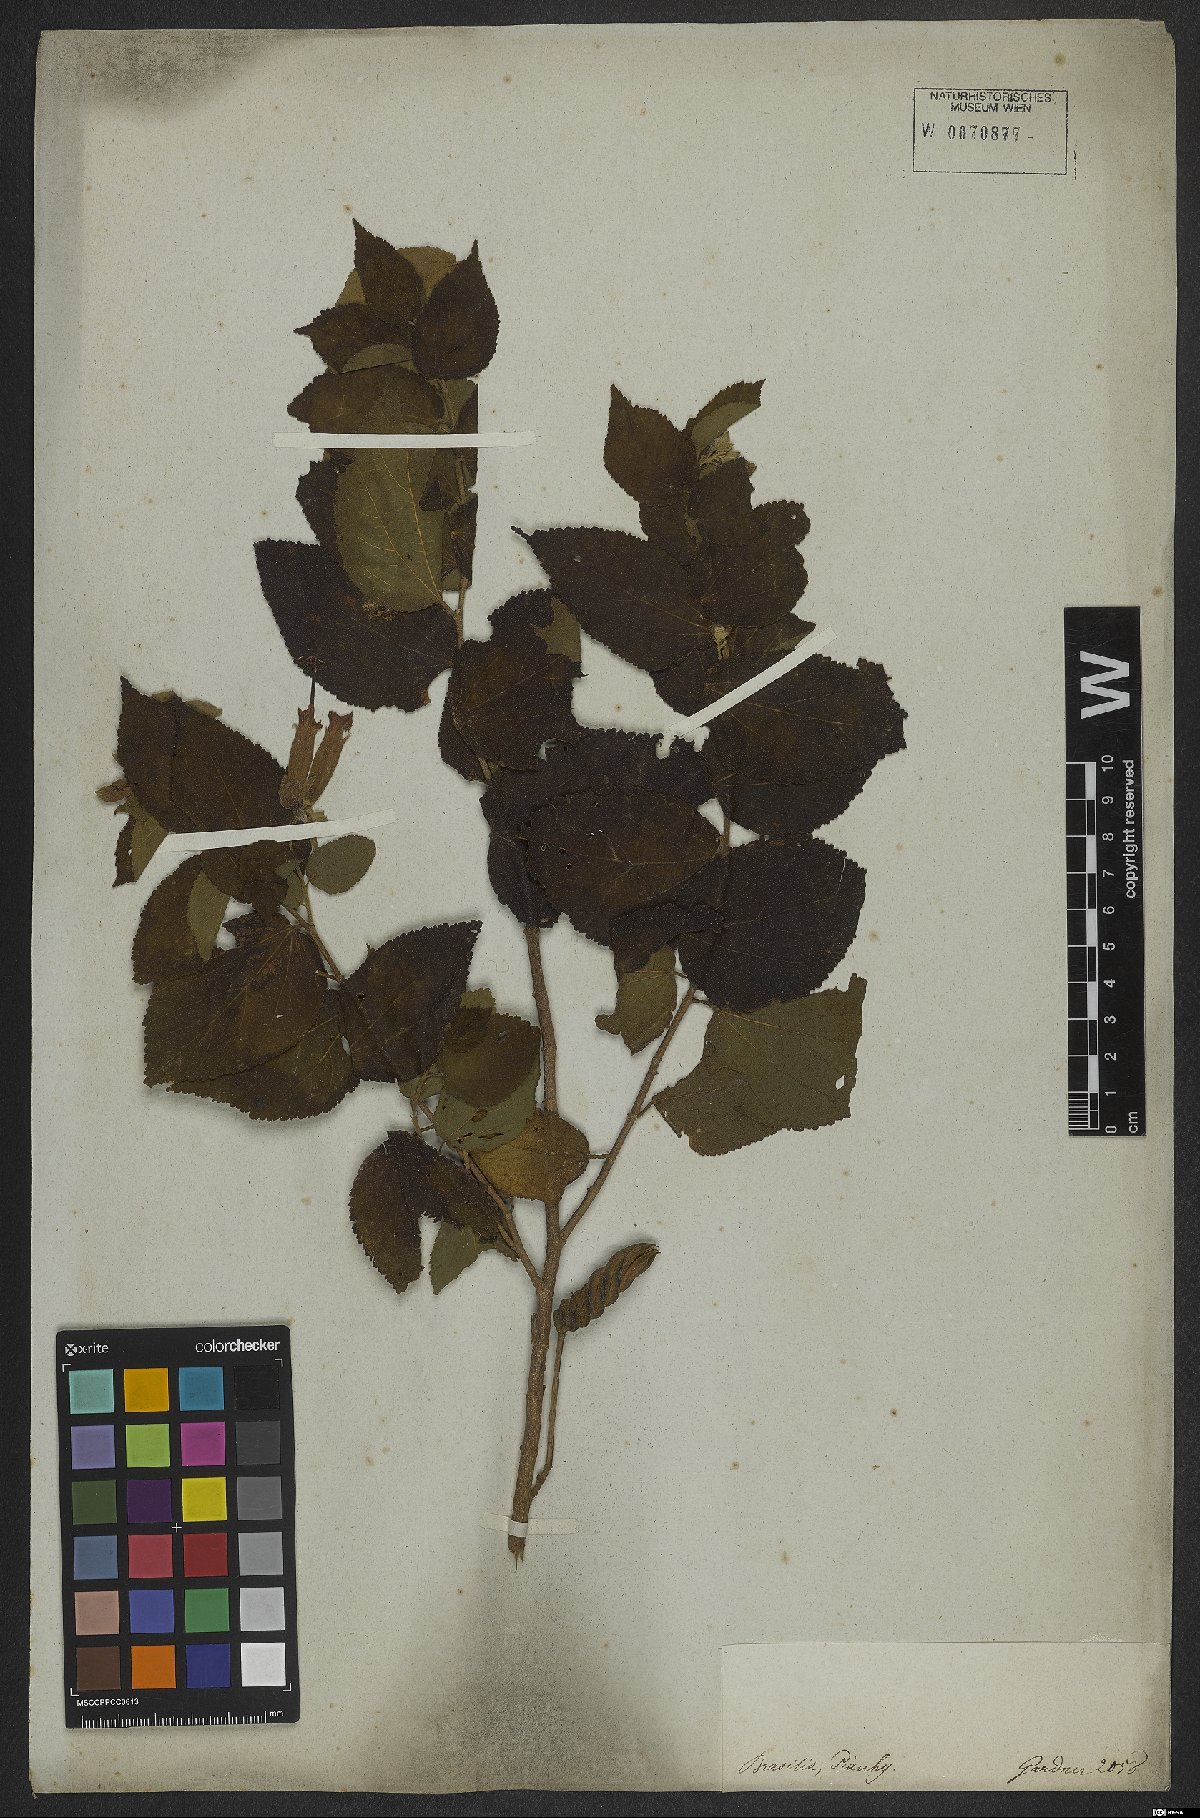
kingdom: Plantae
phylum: Tracheophyta
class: Magnoliopsida
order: Malvales
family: Malvaceae
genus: Helicteres
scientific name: Helicteres guazumifolia
